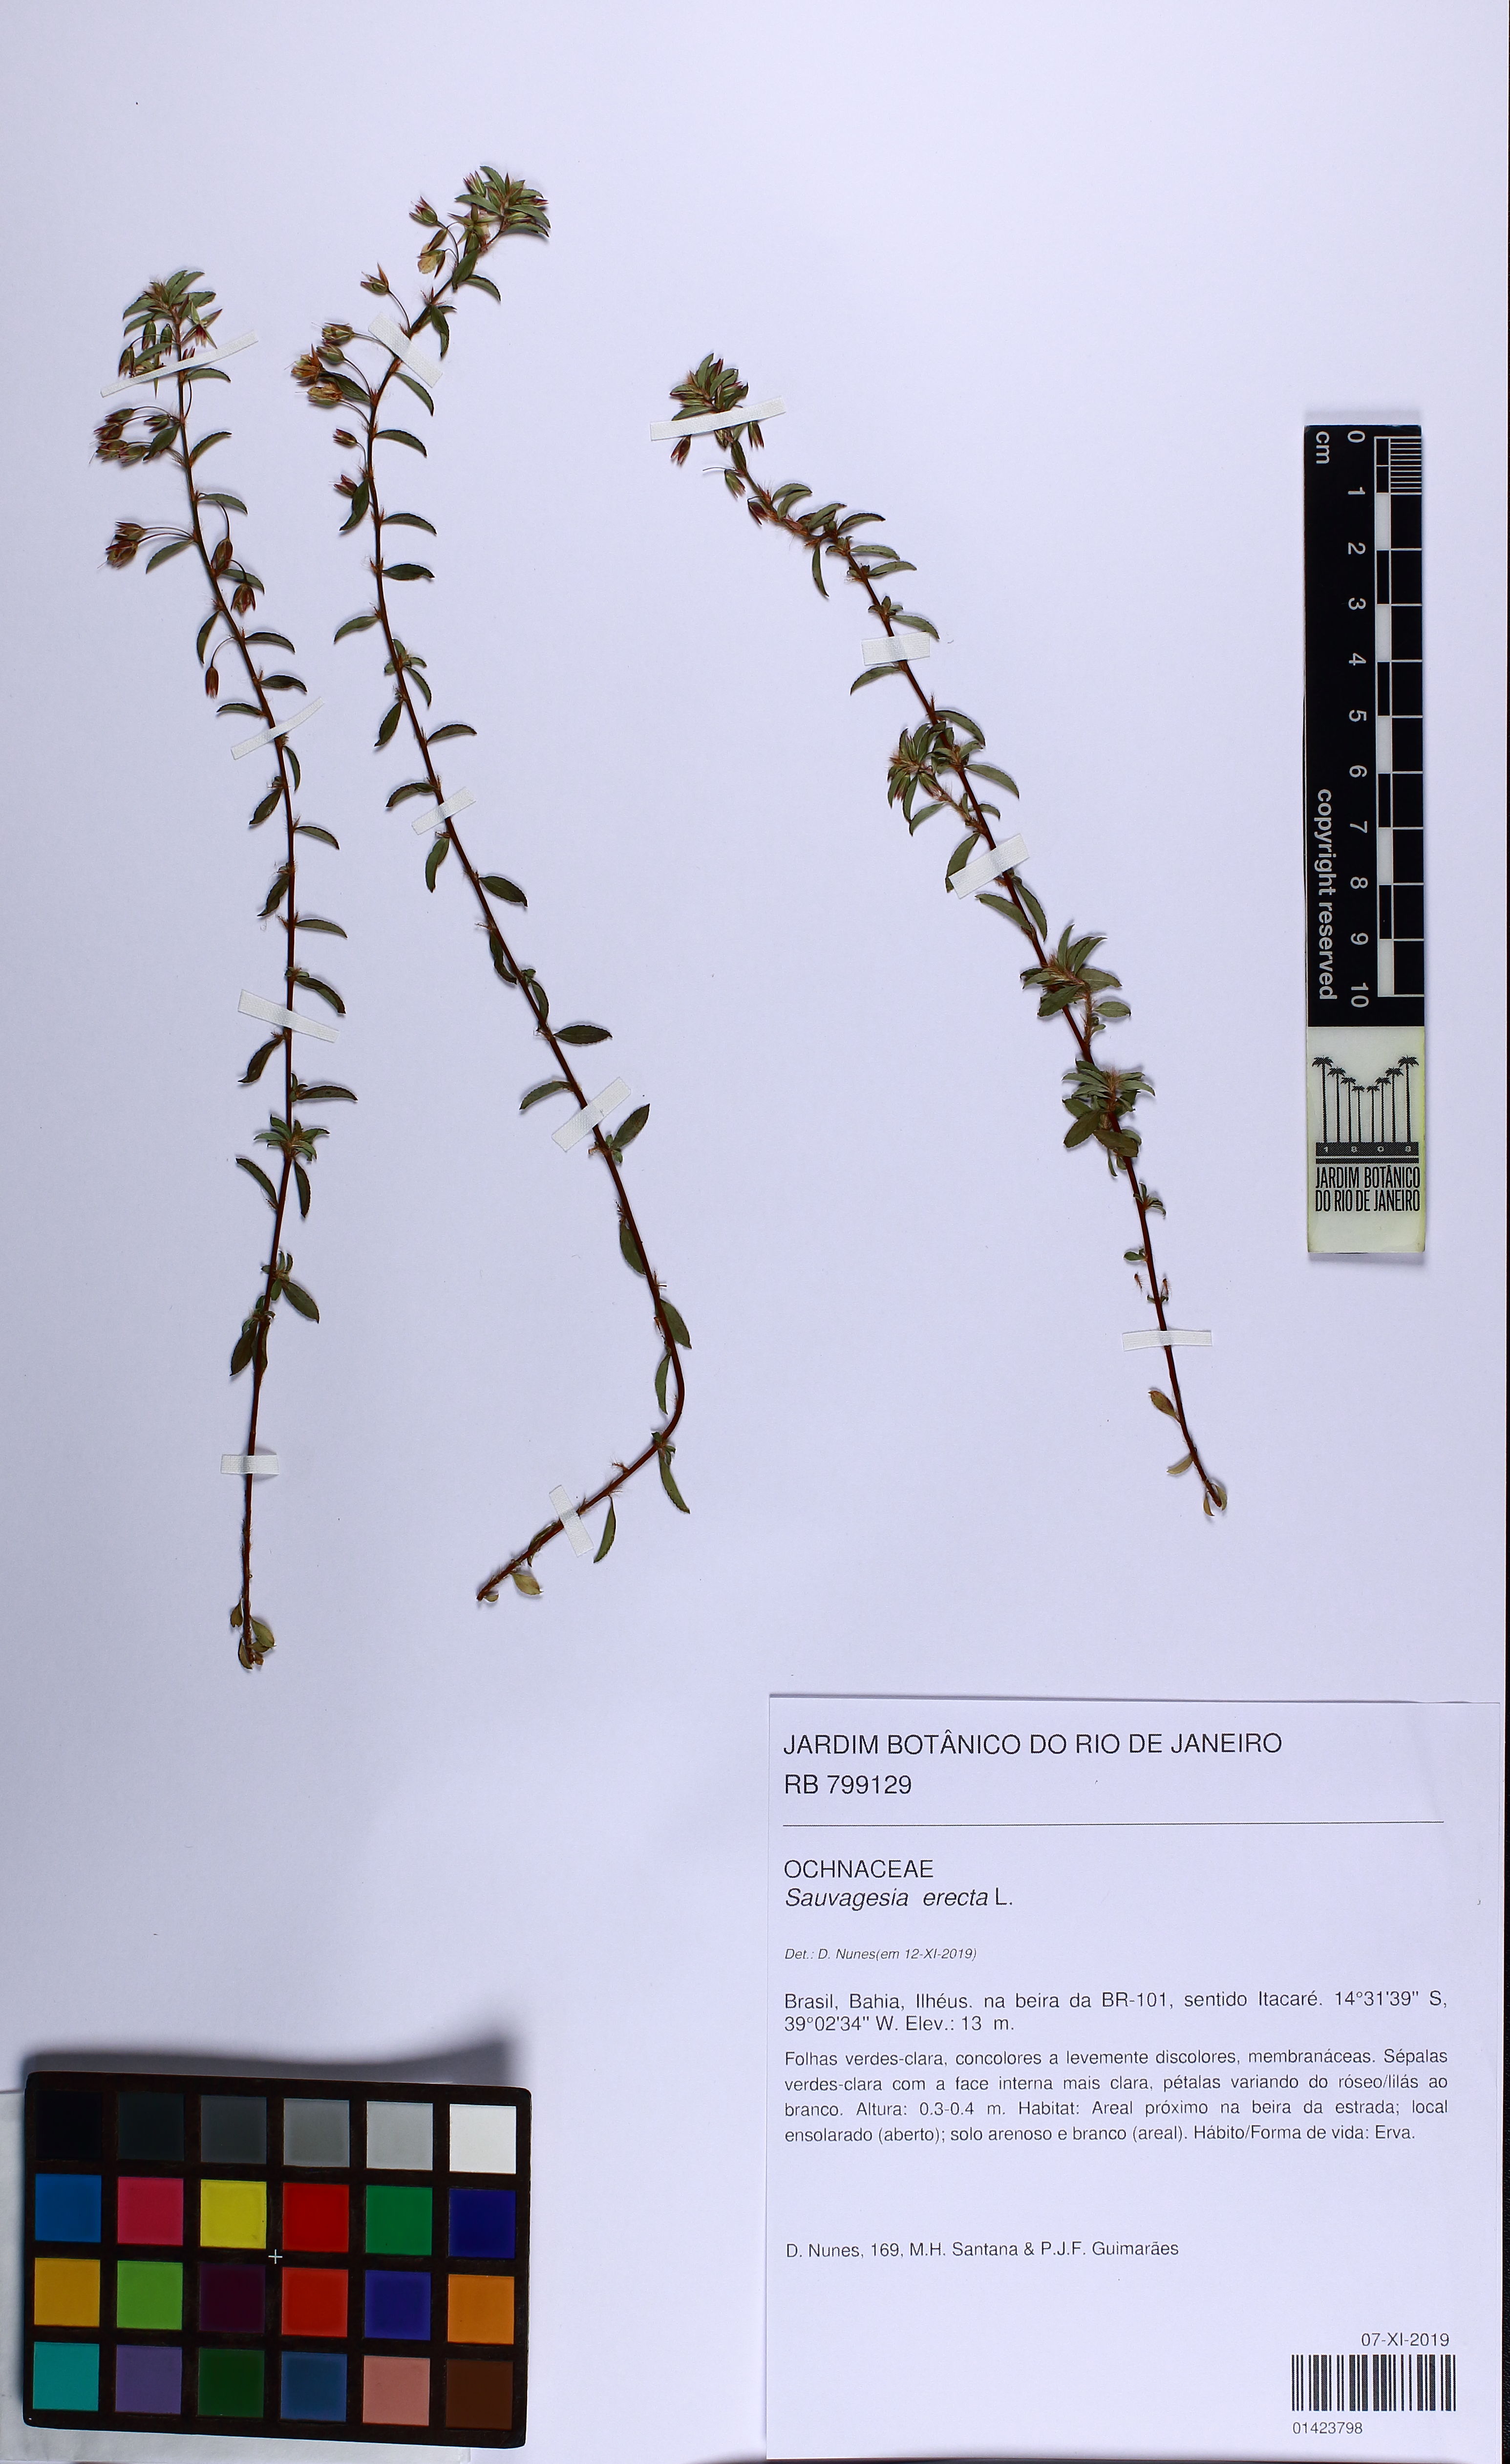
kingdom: Plantae
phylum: Tracheophyta
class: Magnoliopsida
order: Malpighiales
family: Ochnaceae
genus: Sauvagesia
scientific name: Sauvagesia erecta
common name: Creole tea
